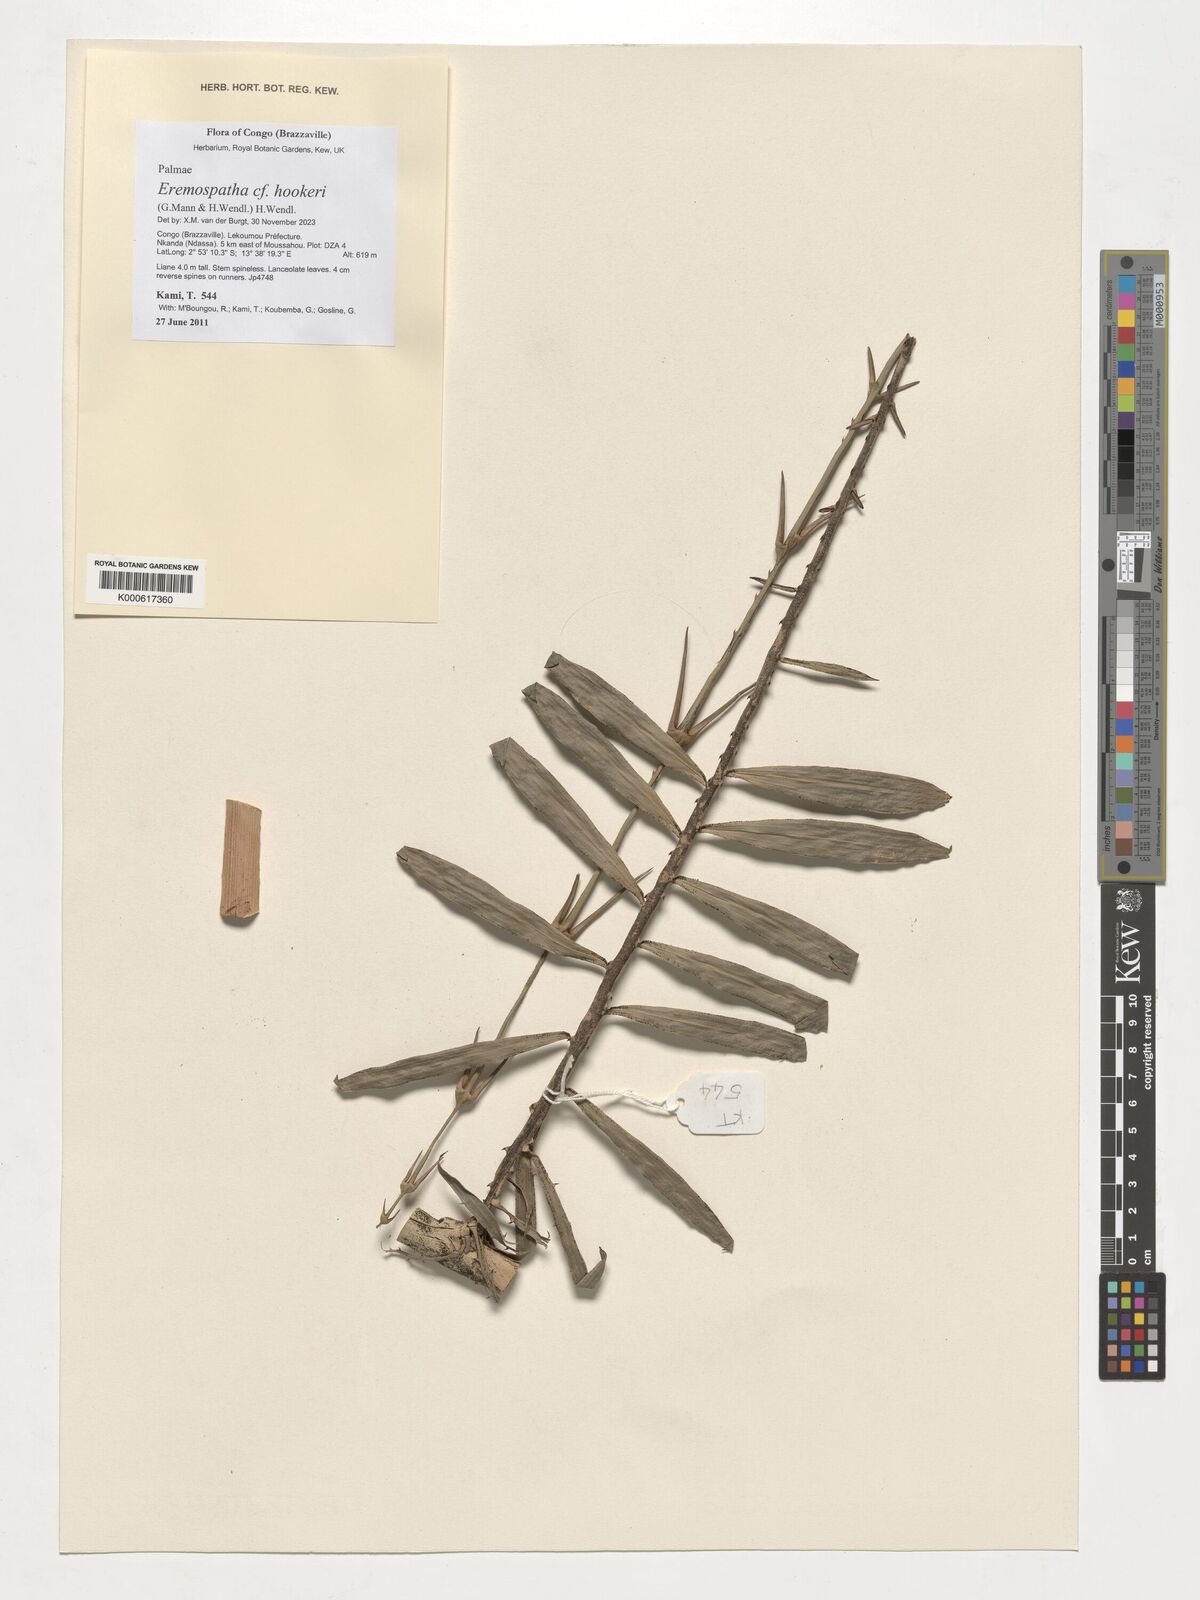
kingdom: Plantae
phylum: Tracheophyta
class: Liliopsida
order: Arecales
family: Arecaceae
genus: Eremospatha
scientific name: Eremospatha hookeri
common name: Rattan
